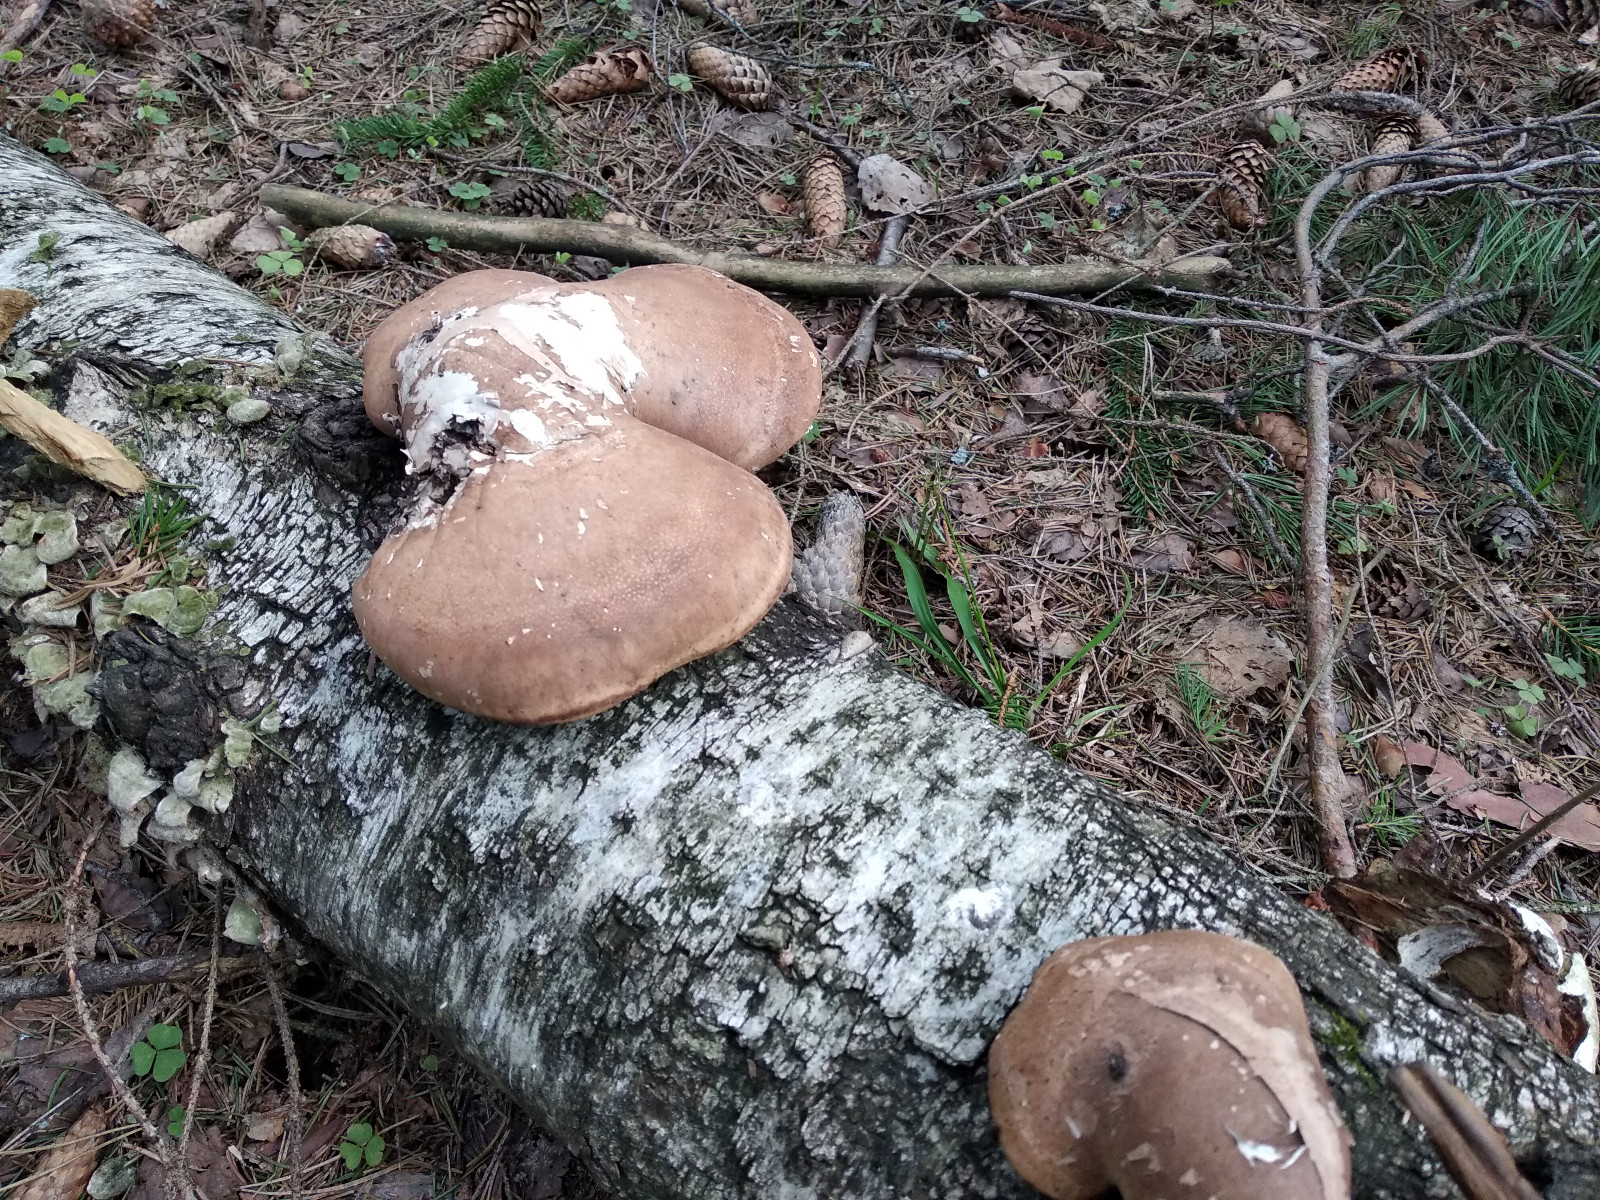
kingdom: Fungi
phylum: Basidiomycota
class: Agaricomycetes
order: Polyporales
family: Fomitopsidaceae
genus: Fomitopsis
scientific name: Fomitopsis betulina
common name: birkeporesvamp
